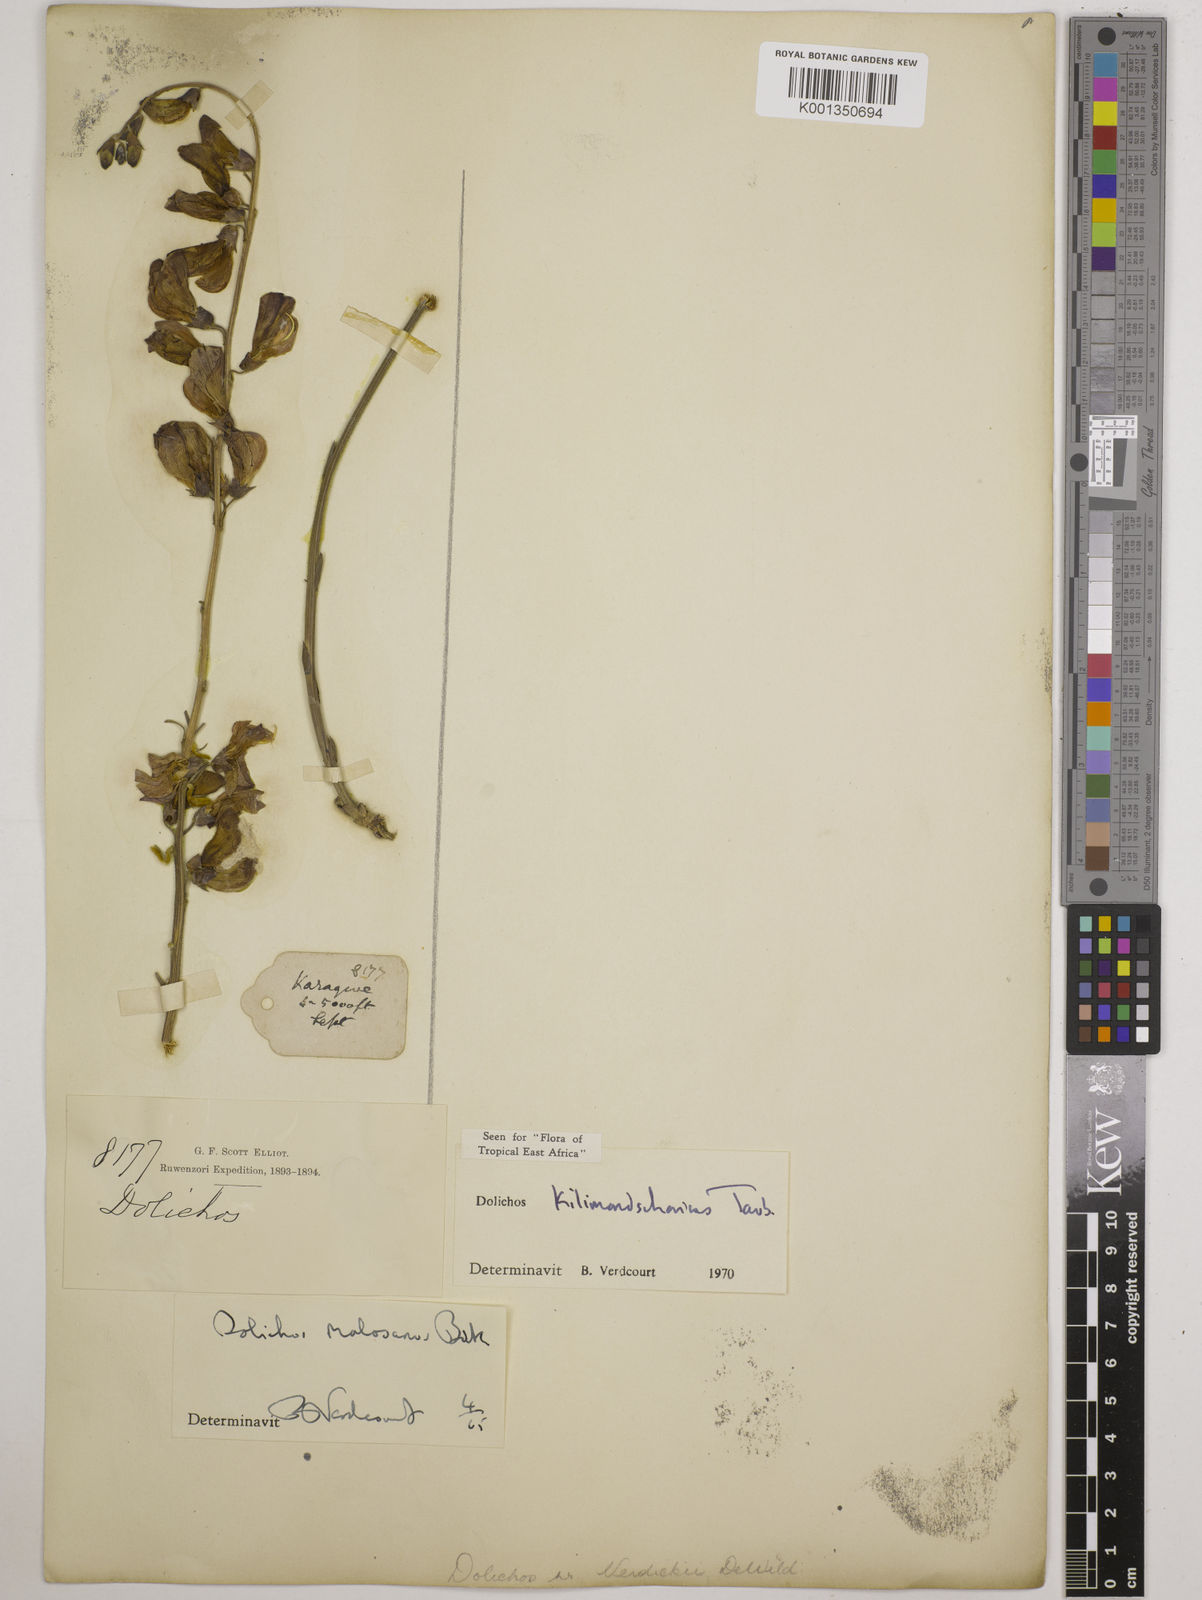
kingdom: Plantae
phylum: Tracheophyta
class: Magnoliopsida
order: Fabales
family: Fabaceae
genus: Dolichos
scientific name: Dolichos kilimandscharicus
